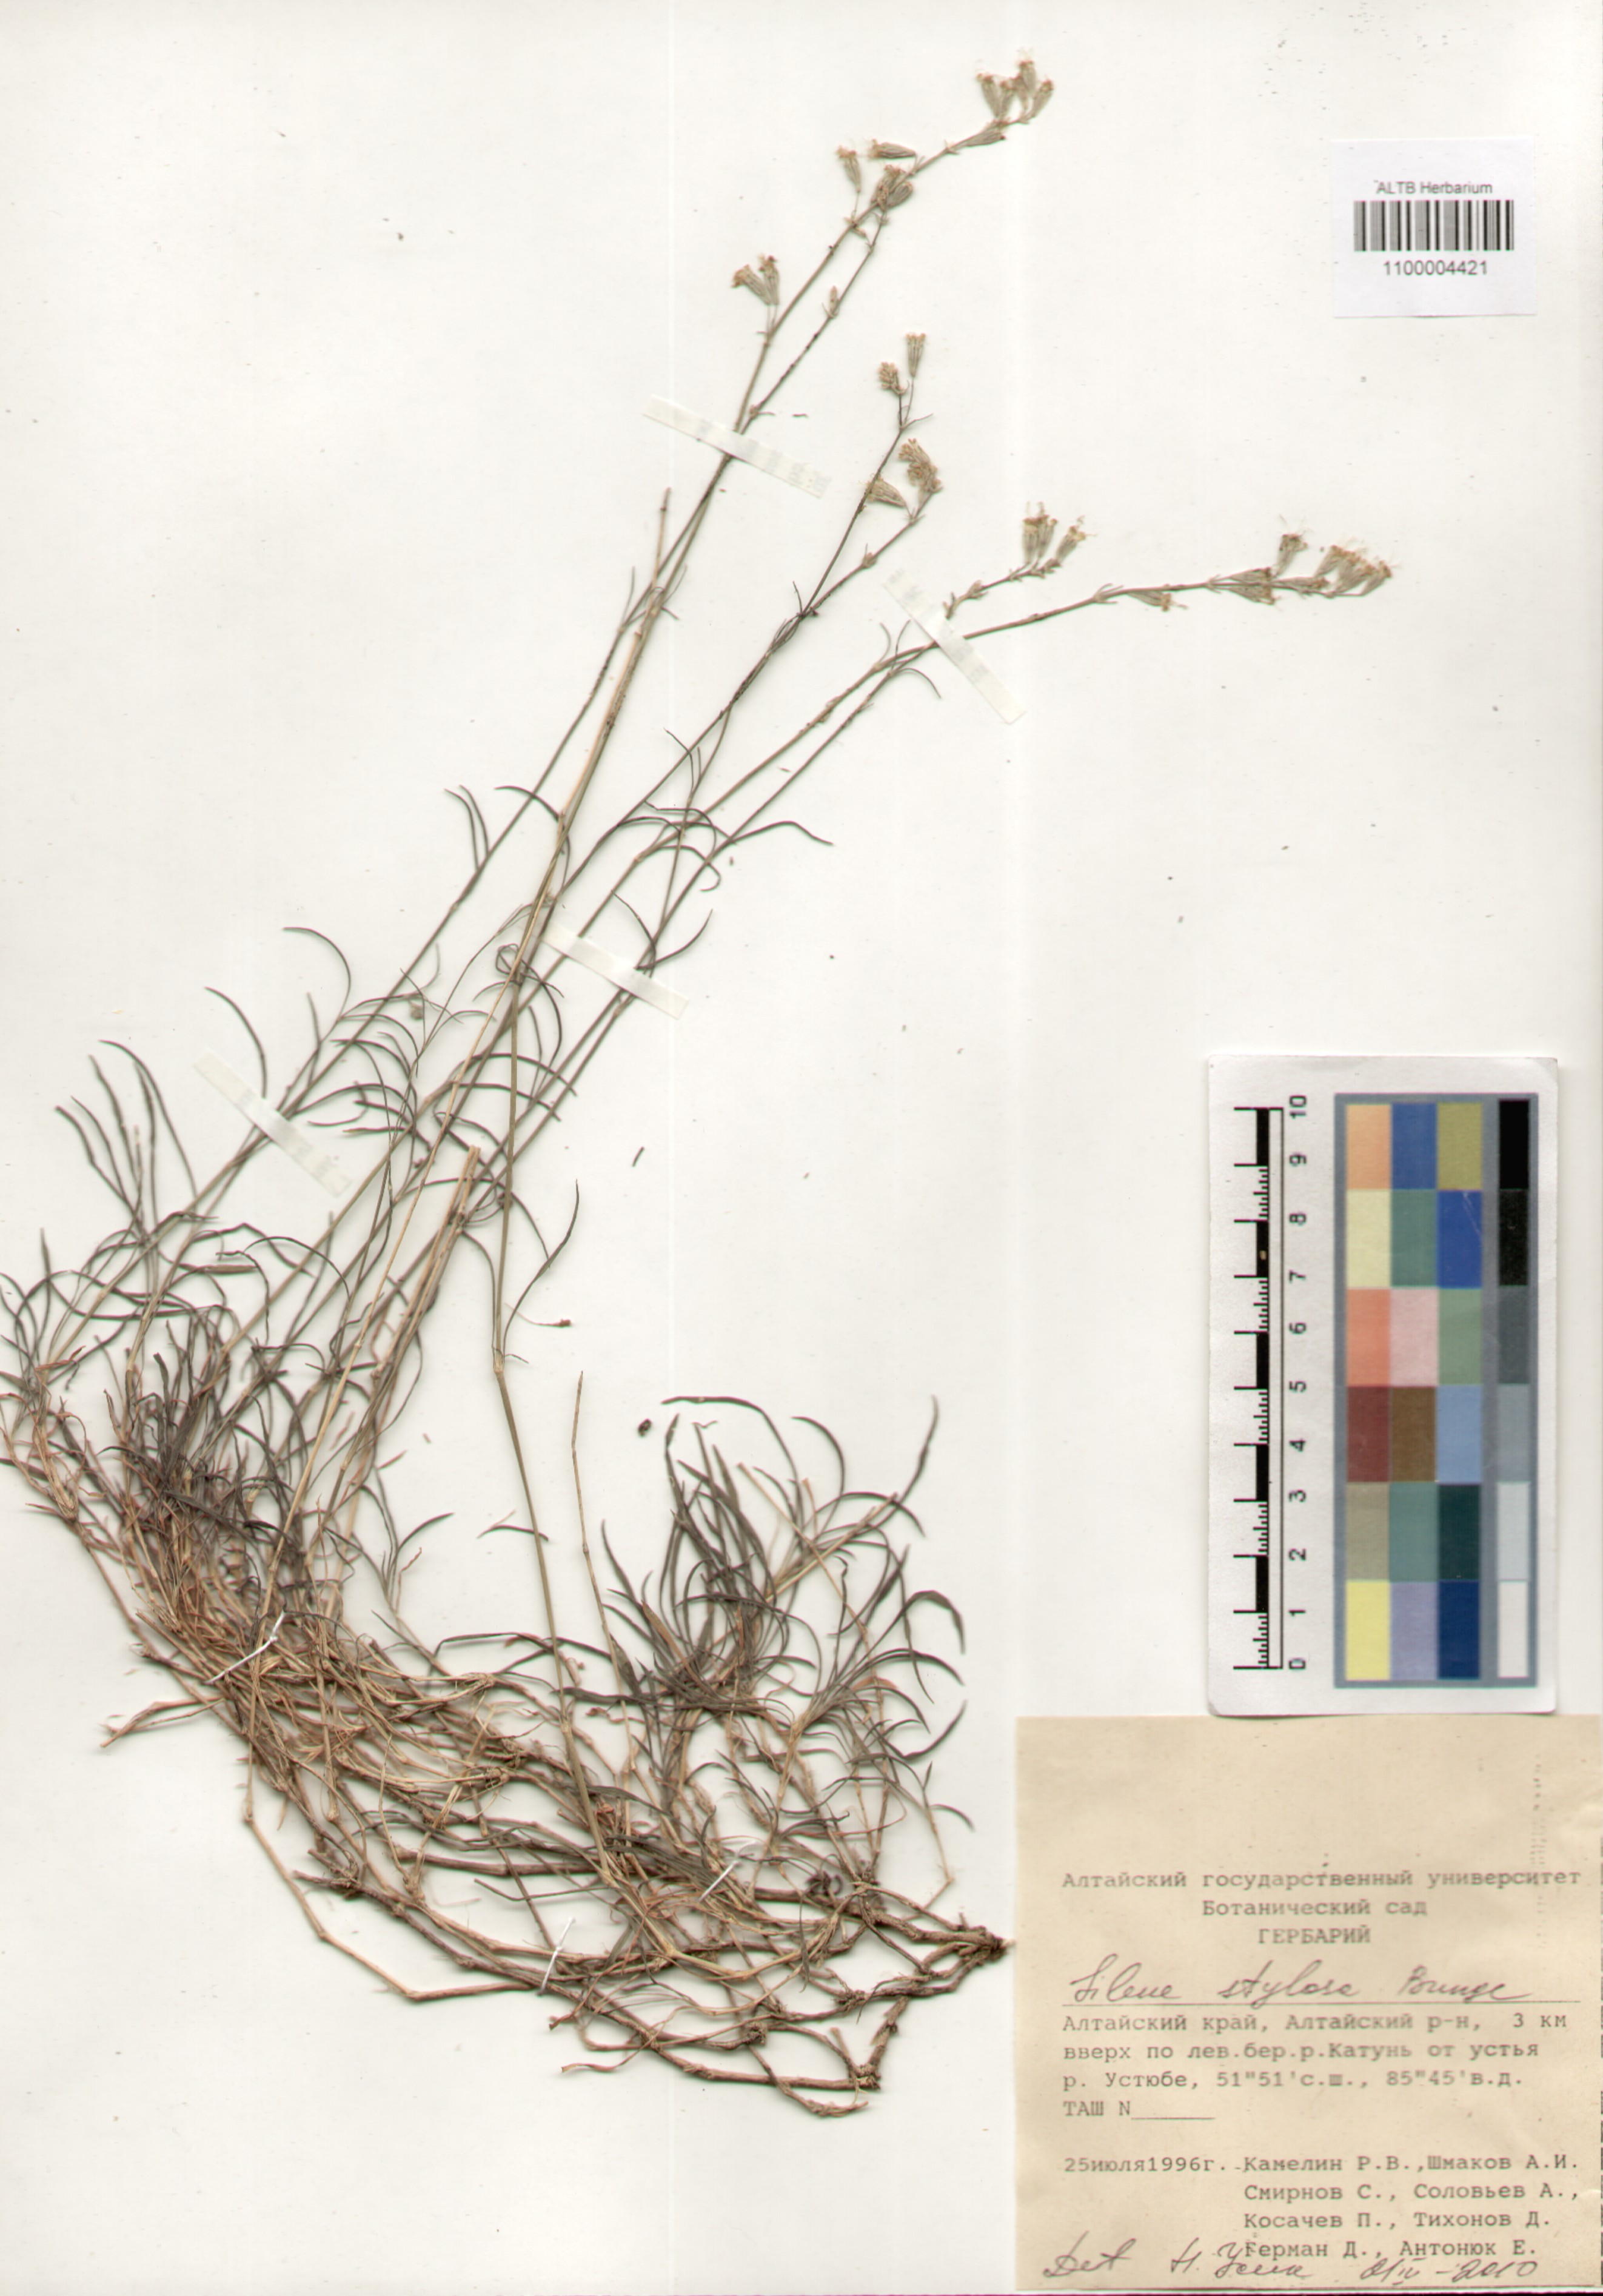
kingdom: Plantae
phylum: Tracheophyta
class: Magnoliopsida
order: Caryophyllales
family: Caryophyllaceae
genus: Silene
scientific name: Silene graminifolia
